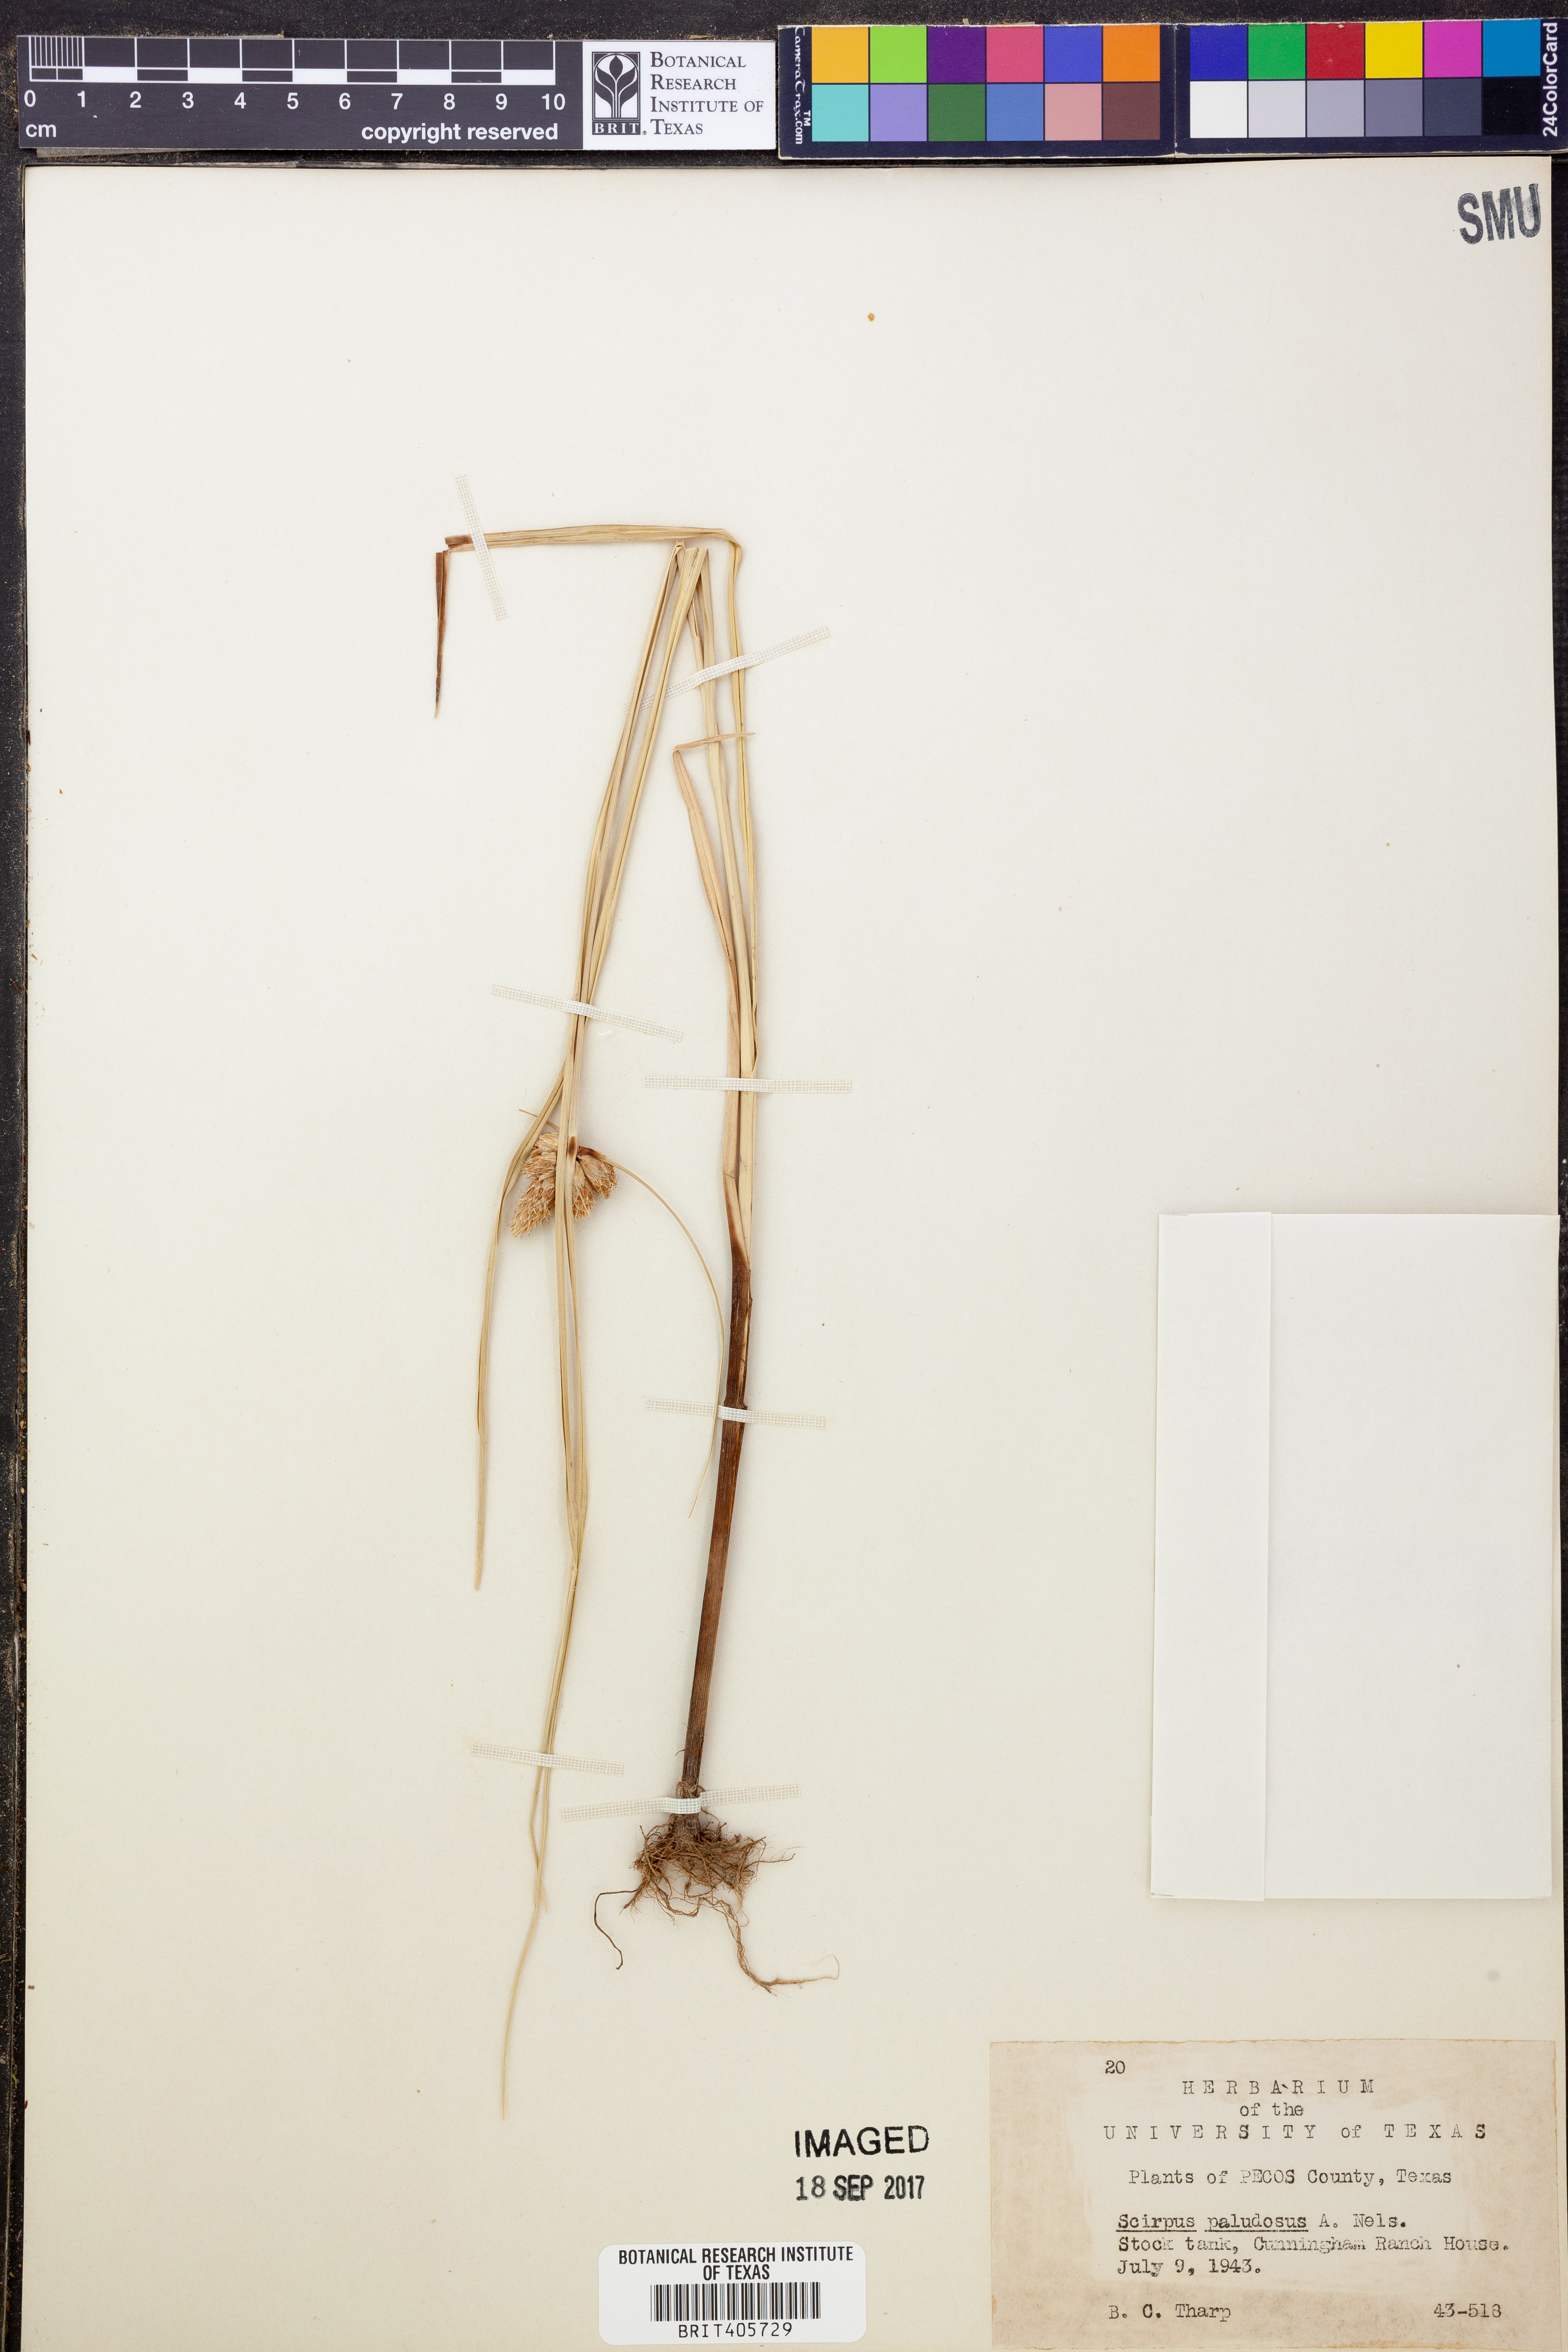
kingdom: Plantae
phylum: Tracheophyta
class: Liliopsida
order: Poales
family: Cyperaceae
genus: Bolboschoenus
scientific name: Bolboschoenus maritimus
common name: Sea club-rush
